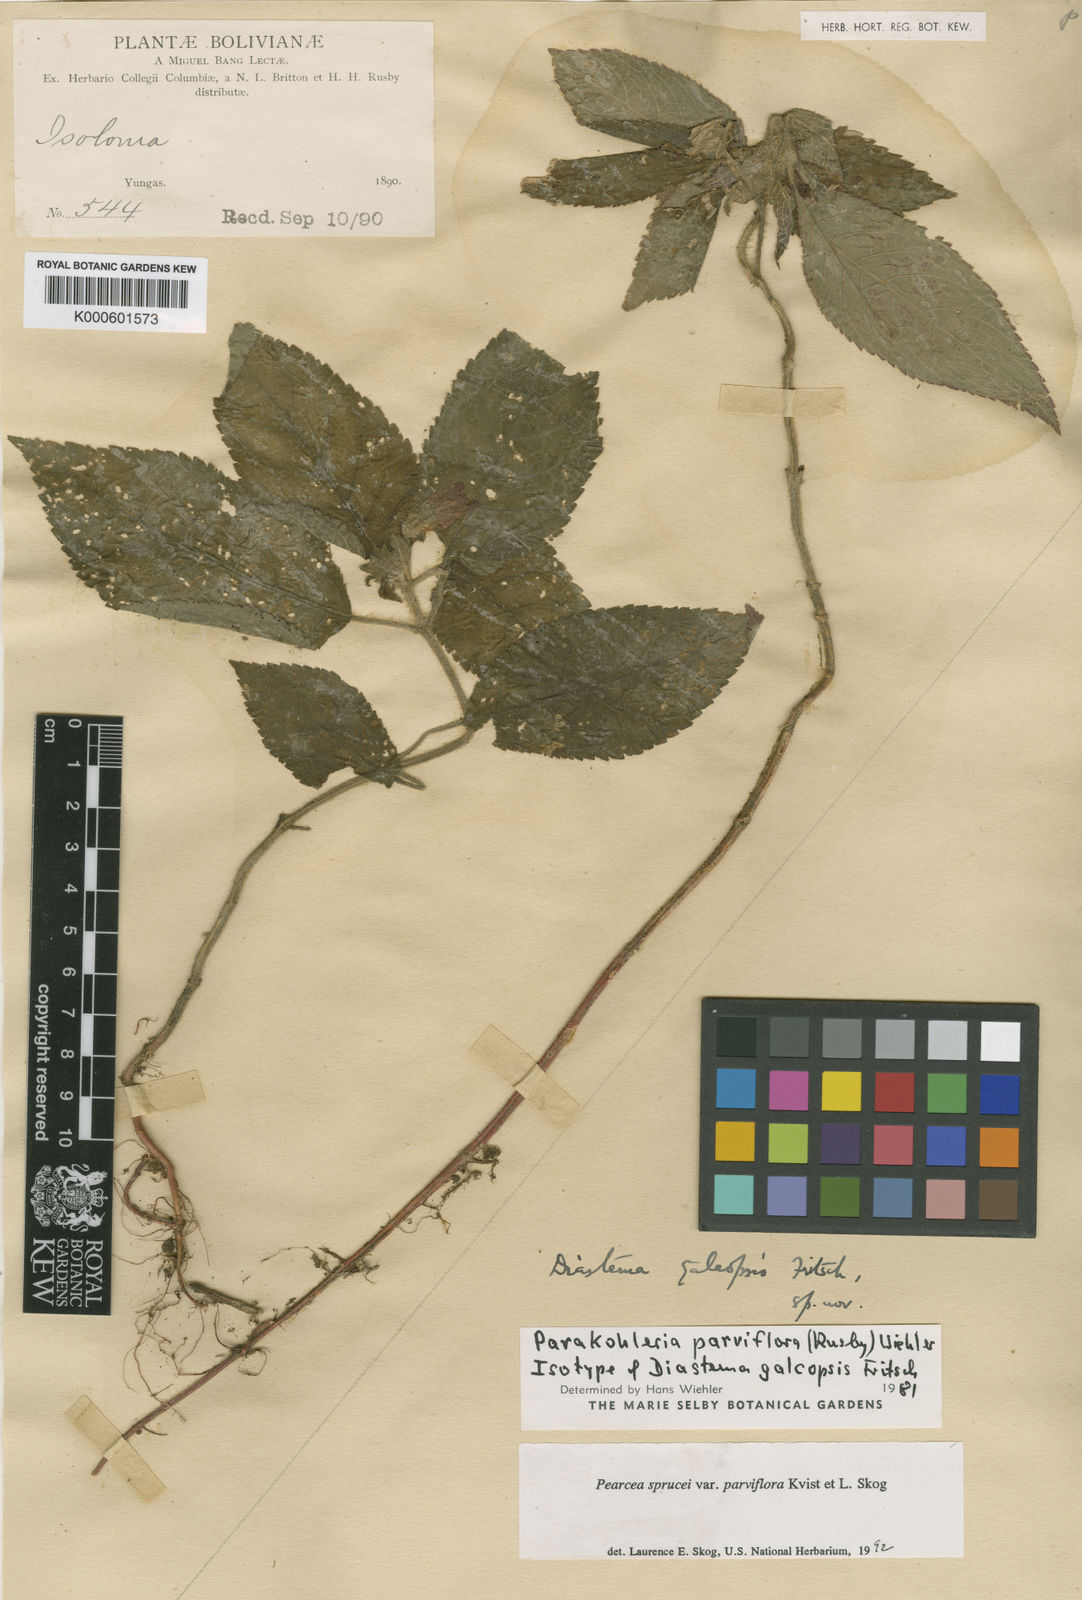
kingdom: Plantae
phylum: Tracheophyta
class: Magnoliopsida
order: Lamiales
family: Gesneriaceae
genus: Pearcea
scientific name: Pearcea sprucei
